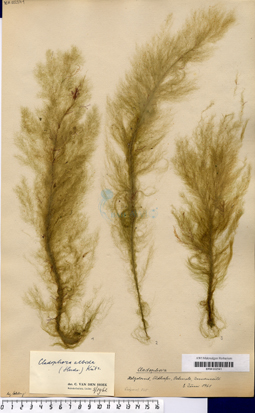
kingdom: Plantae
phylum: Chlorophyta
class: Ulvophyceae
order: Cladophorales
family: Cladophoraceae
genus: Cladophora
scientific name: Cladophora albida
